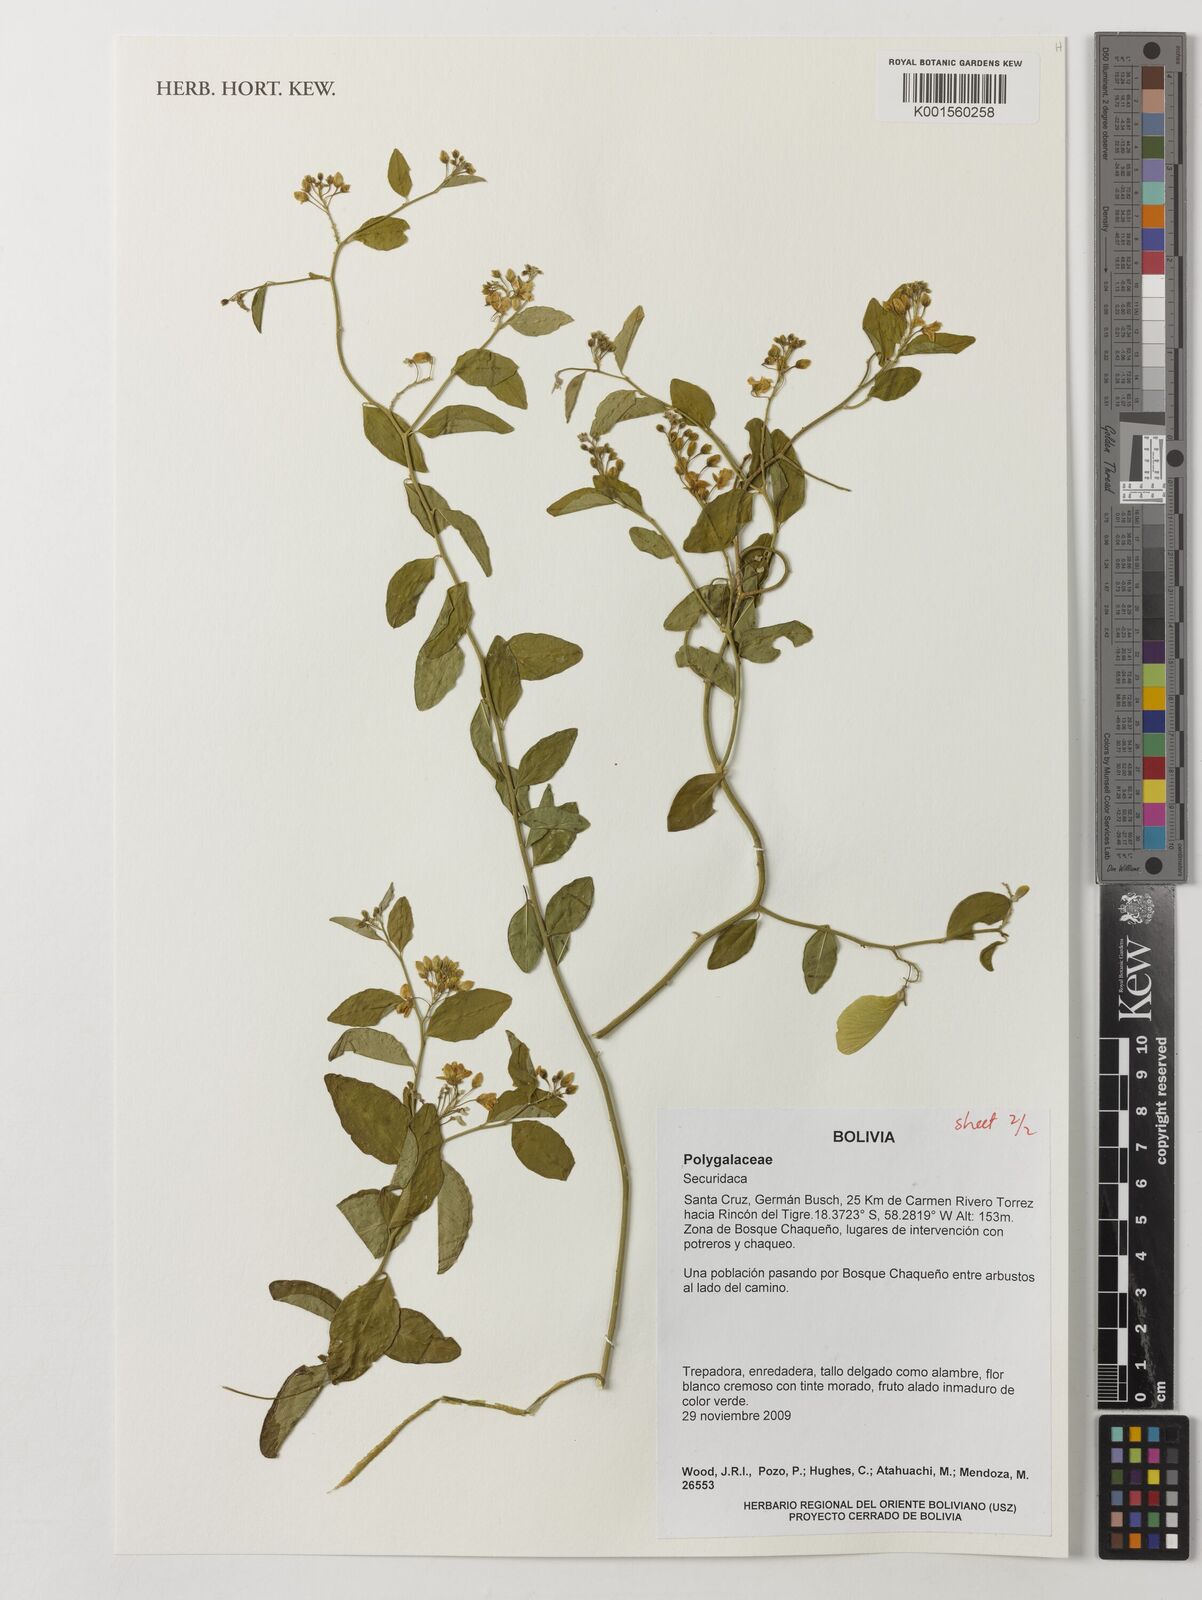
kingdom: Plantae
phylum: Tracheophyta
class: Magnoliopsida
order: Fabales
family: Polygalaceae
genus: Securidaca
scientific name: Securidaca
